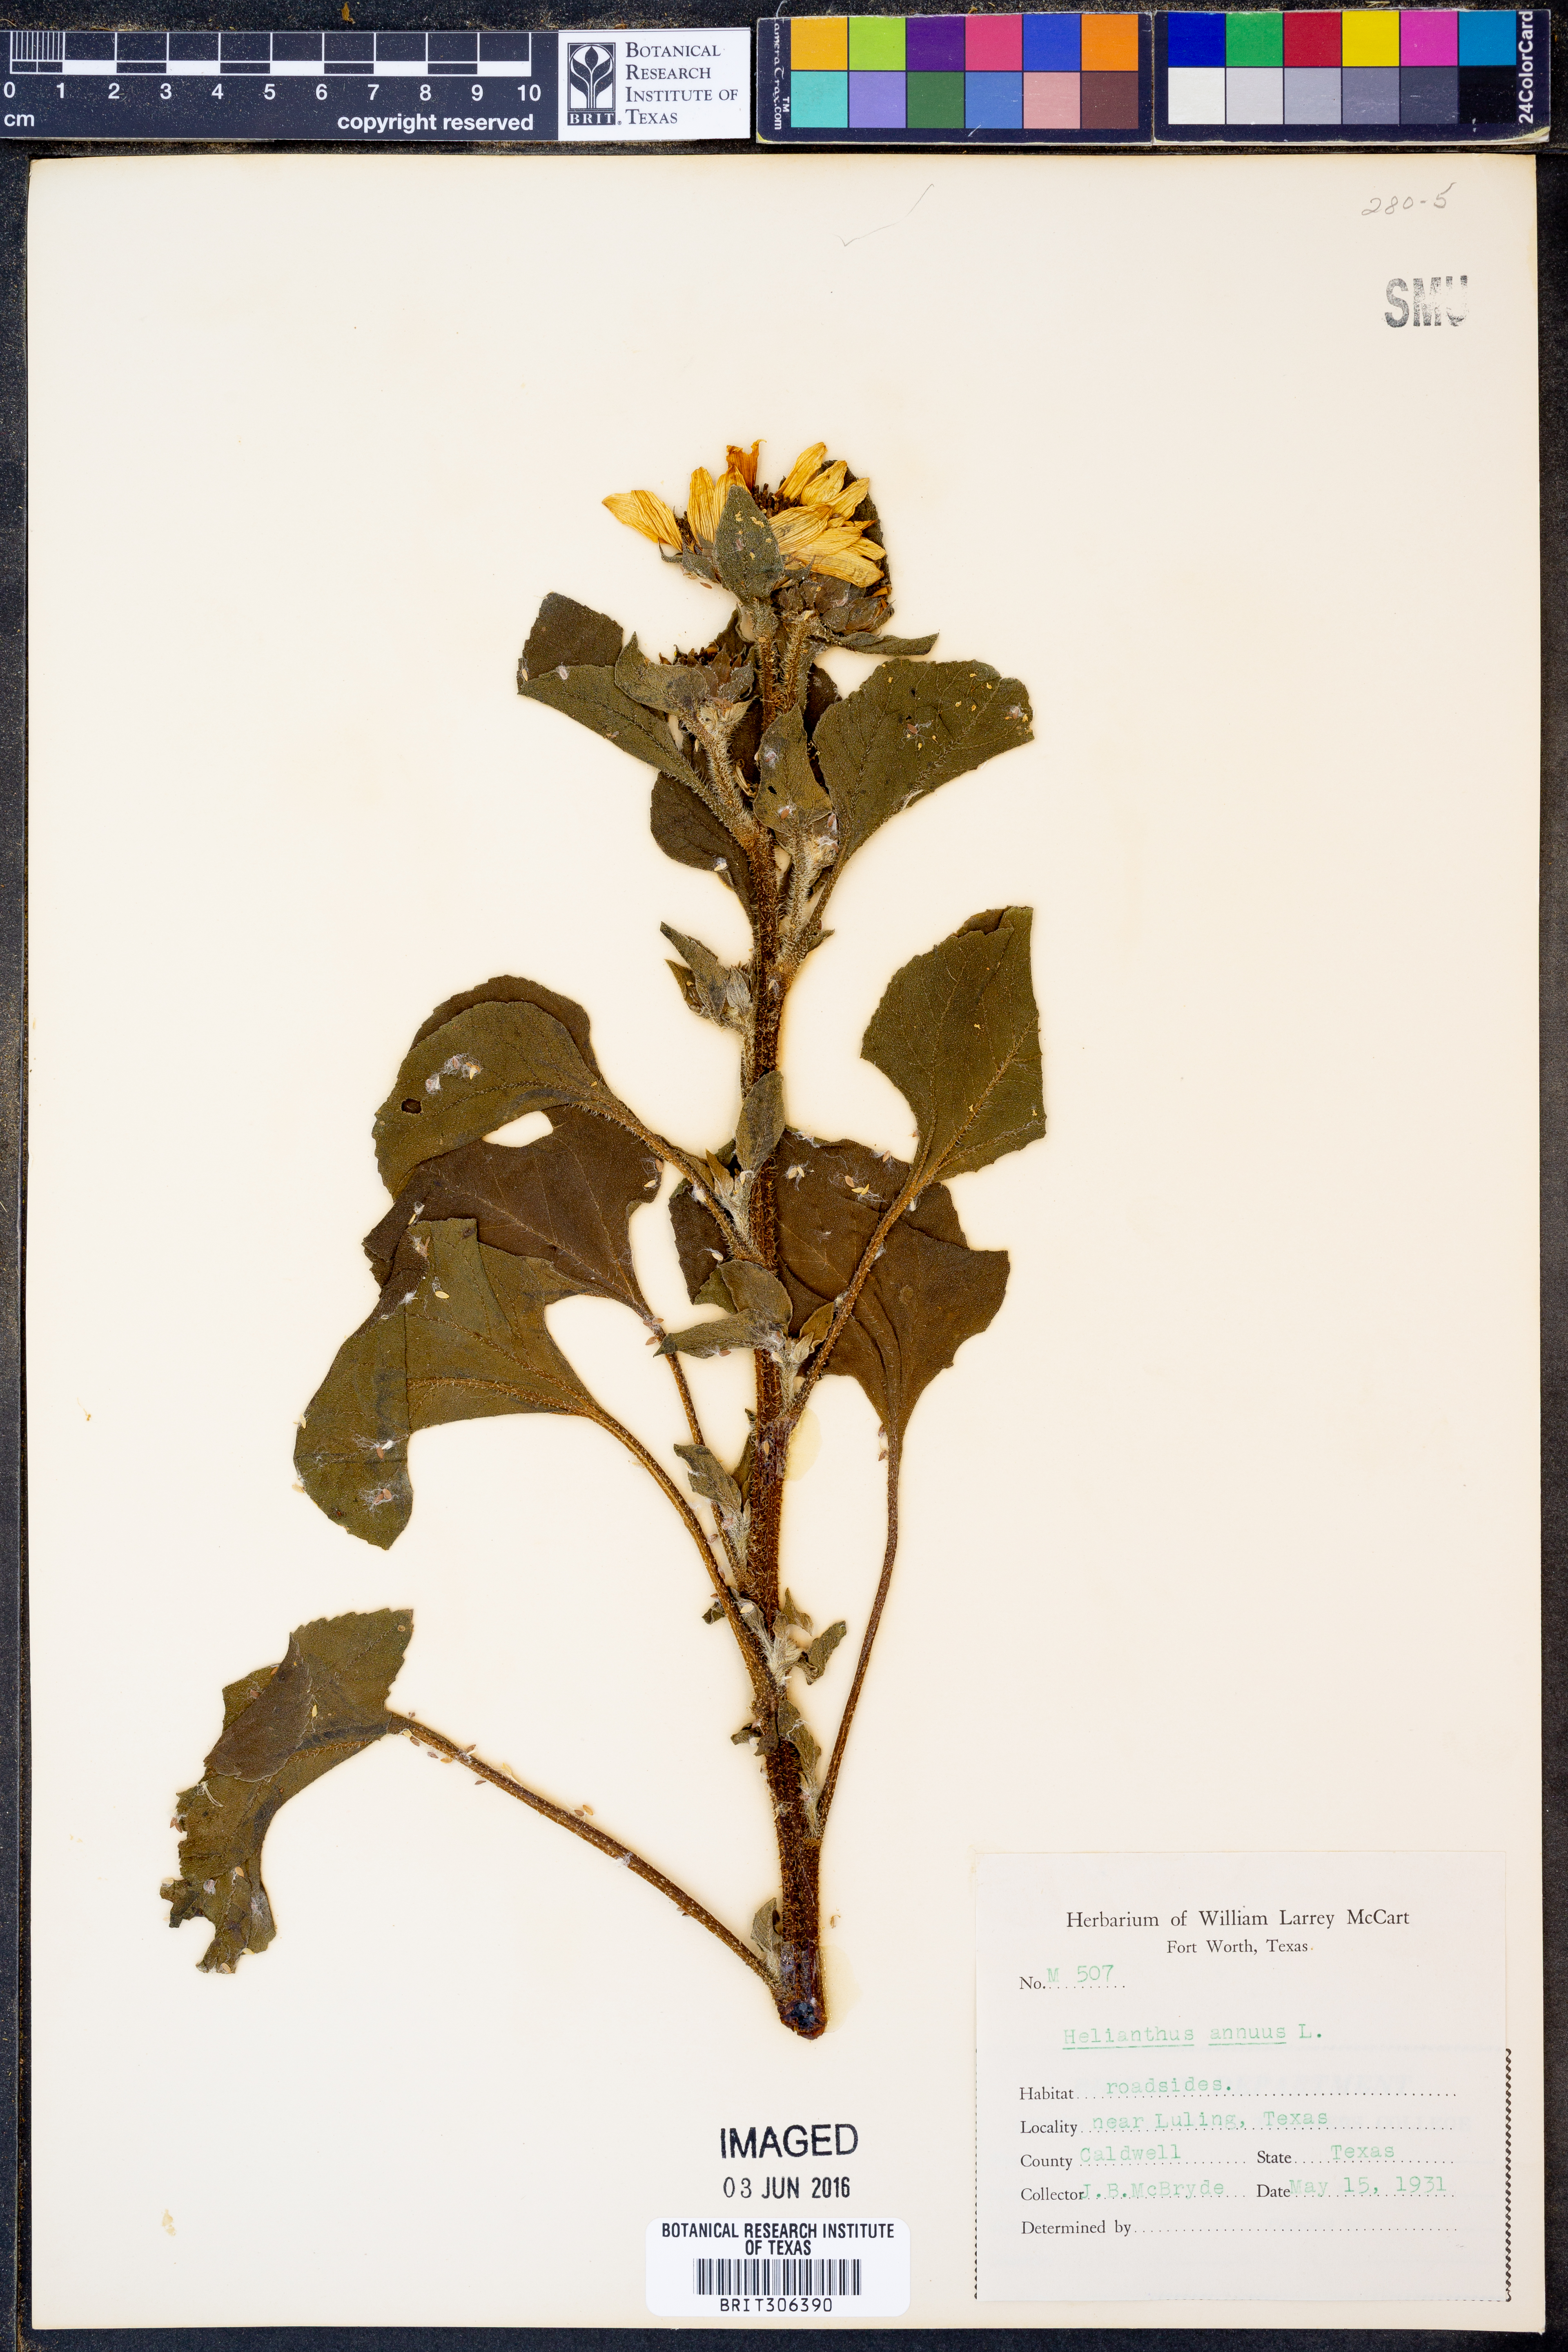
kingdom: Plantae
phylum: Tracheophyta
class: Magnoliopsida
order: Asterales
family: Asteraceae
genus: Helianthus
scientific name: Helianthus annuus
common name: Sunflower
